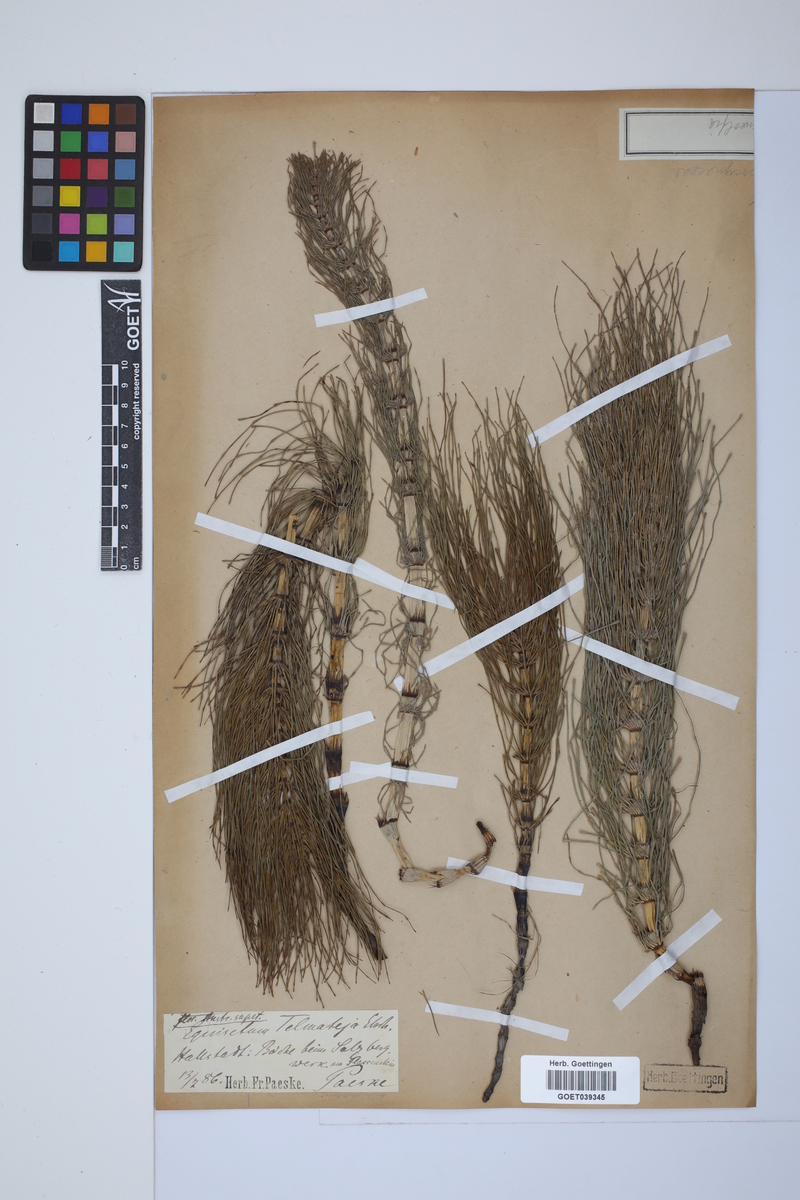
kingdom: Plantae
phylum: Tracheophyta
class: Polypodiopsida
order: Equisetales
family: Equisetaceae
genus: Equisetum
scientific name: Equisetum telmateia
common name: Great horsetail
